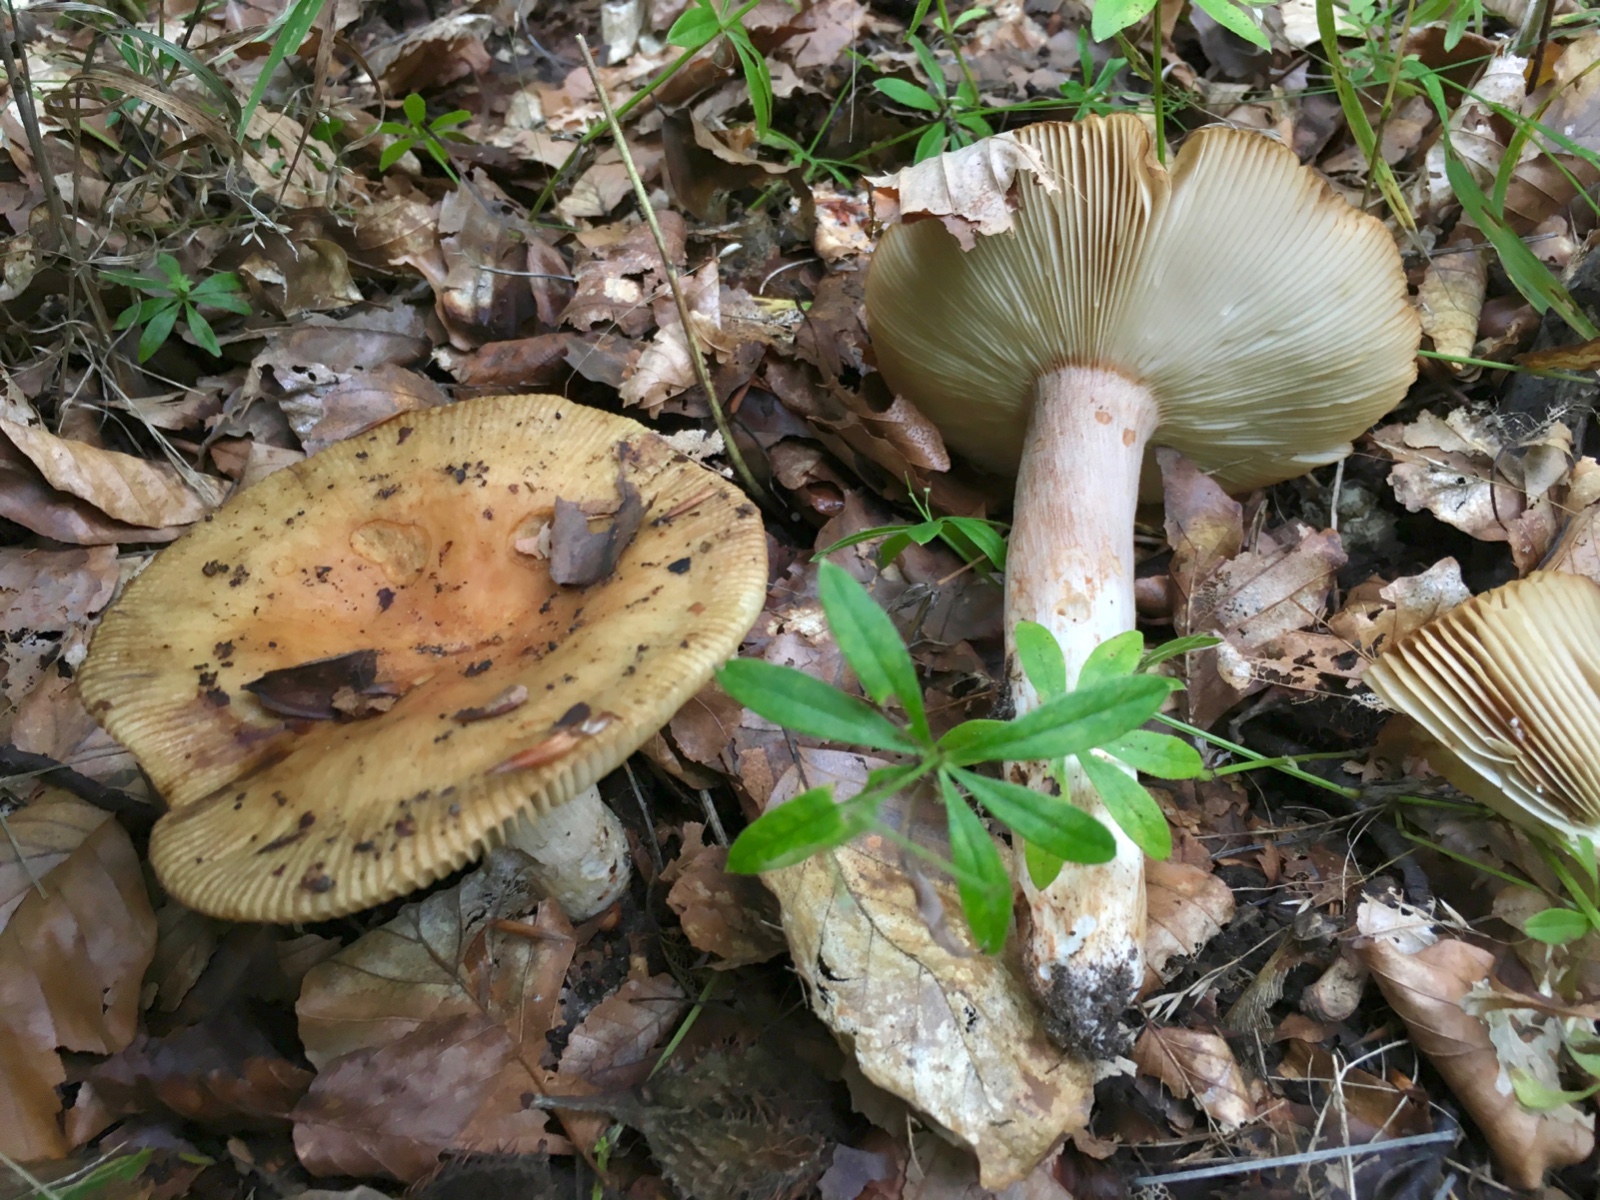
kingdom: Fungi
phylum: Basidiomycota
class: Agaricomycetes
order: Russulales
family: Russulaceae
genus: Russula
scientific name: Russula grata
